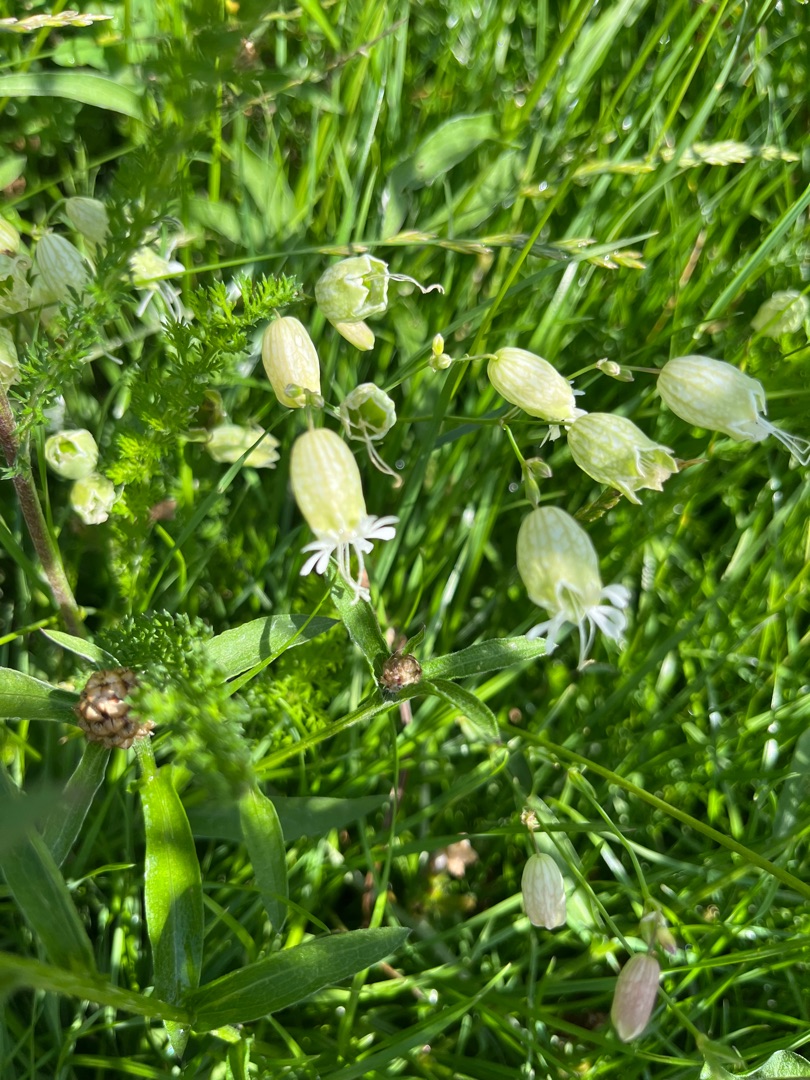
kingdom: Plantae
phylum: Tracheophyta
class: Magnoliopsida
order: Caryophyllales
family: Caryophyllaceae
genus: Silene
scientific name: Silene vulgaris
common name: Blæresmælde
